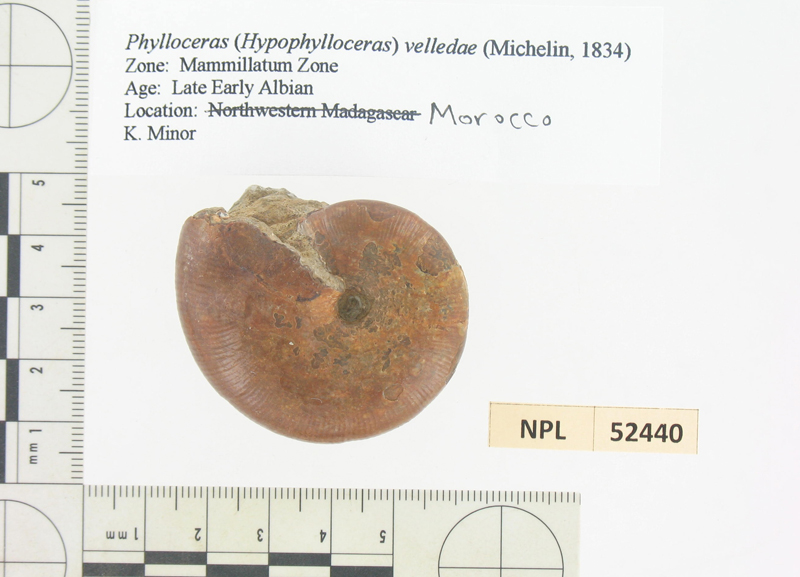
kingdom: Animalia
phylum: Mollusca
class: Cephalopoda
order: Phylloceratida
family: Phylloceratidae
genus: Phylloceras
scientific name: Phylloceras velledae
